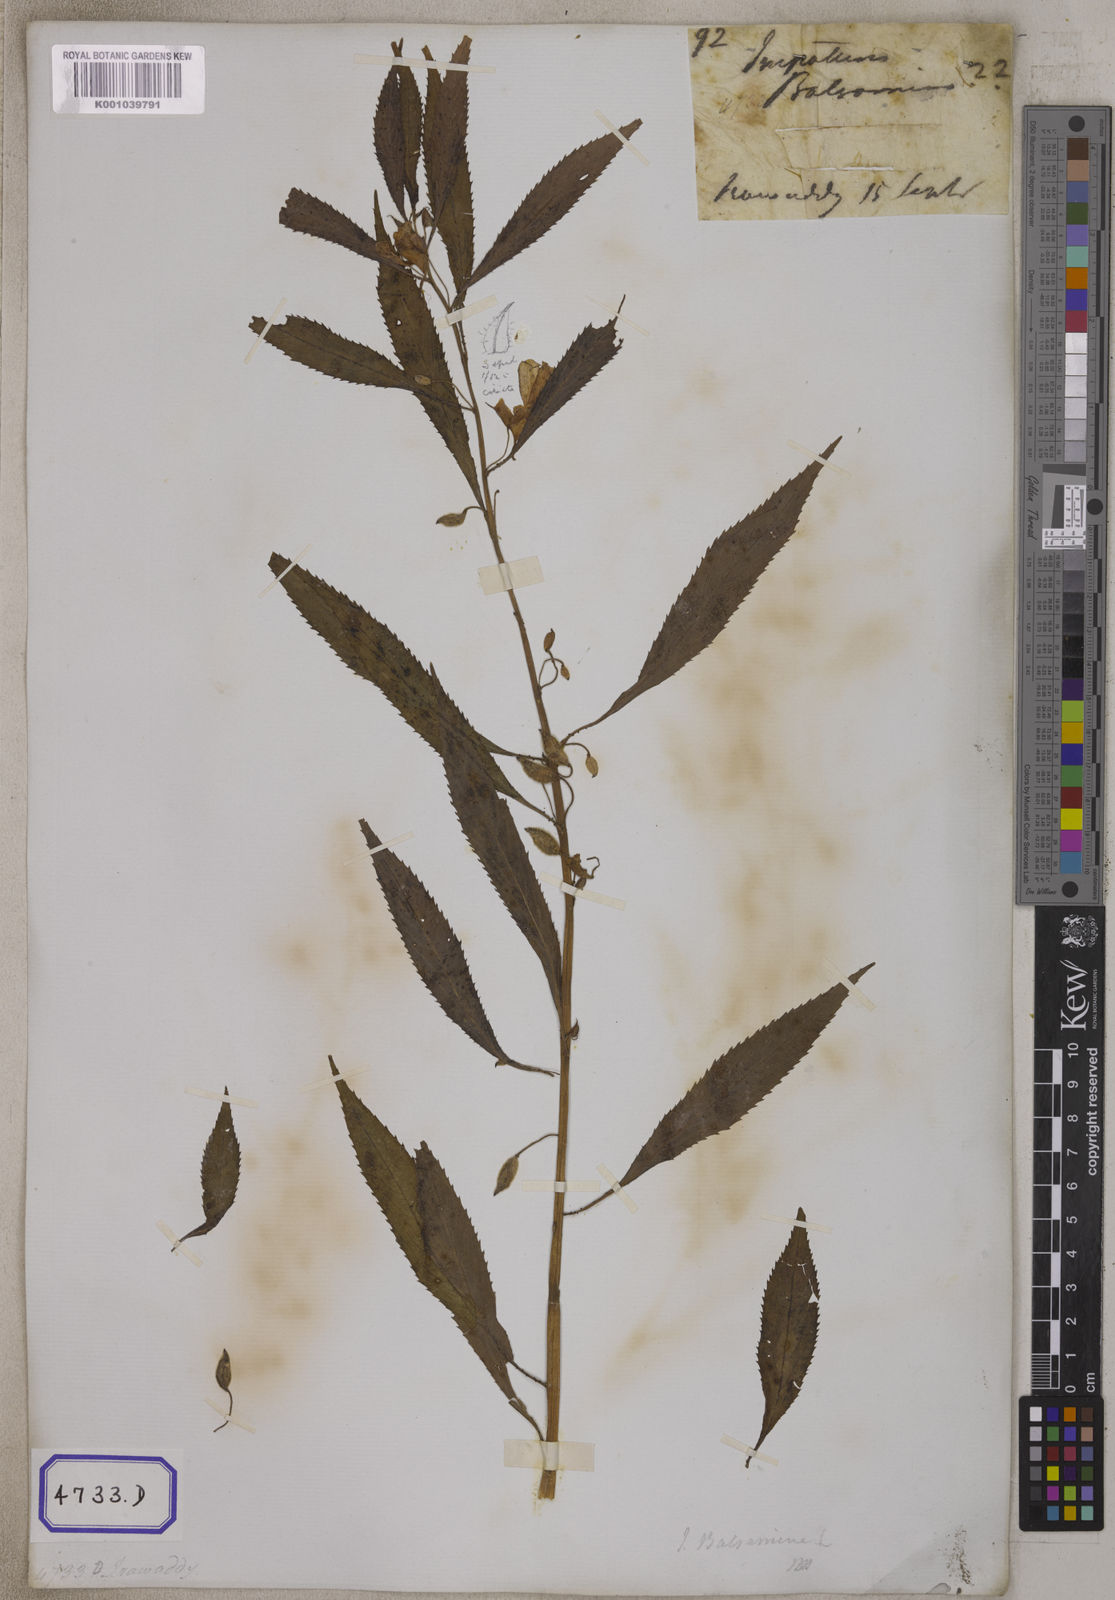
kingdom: Plantae
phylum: Tracheophyta
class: Magnoliopsida
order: Ericales
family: Balsaminaceae
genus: Impatiens
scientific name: Impatiens balsamina
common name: Balsam
